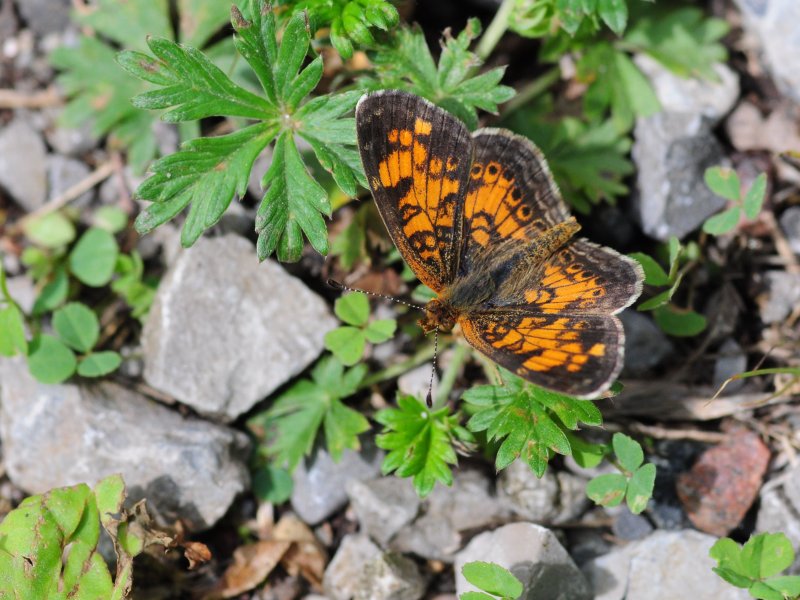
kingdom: Animalia
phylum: Arthropoda
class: Insecta
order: Lepidoptera
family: Nymphalidae
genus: Phyciodes
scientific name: Phyciodes tharos
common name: Pearl Crescent
